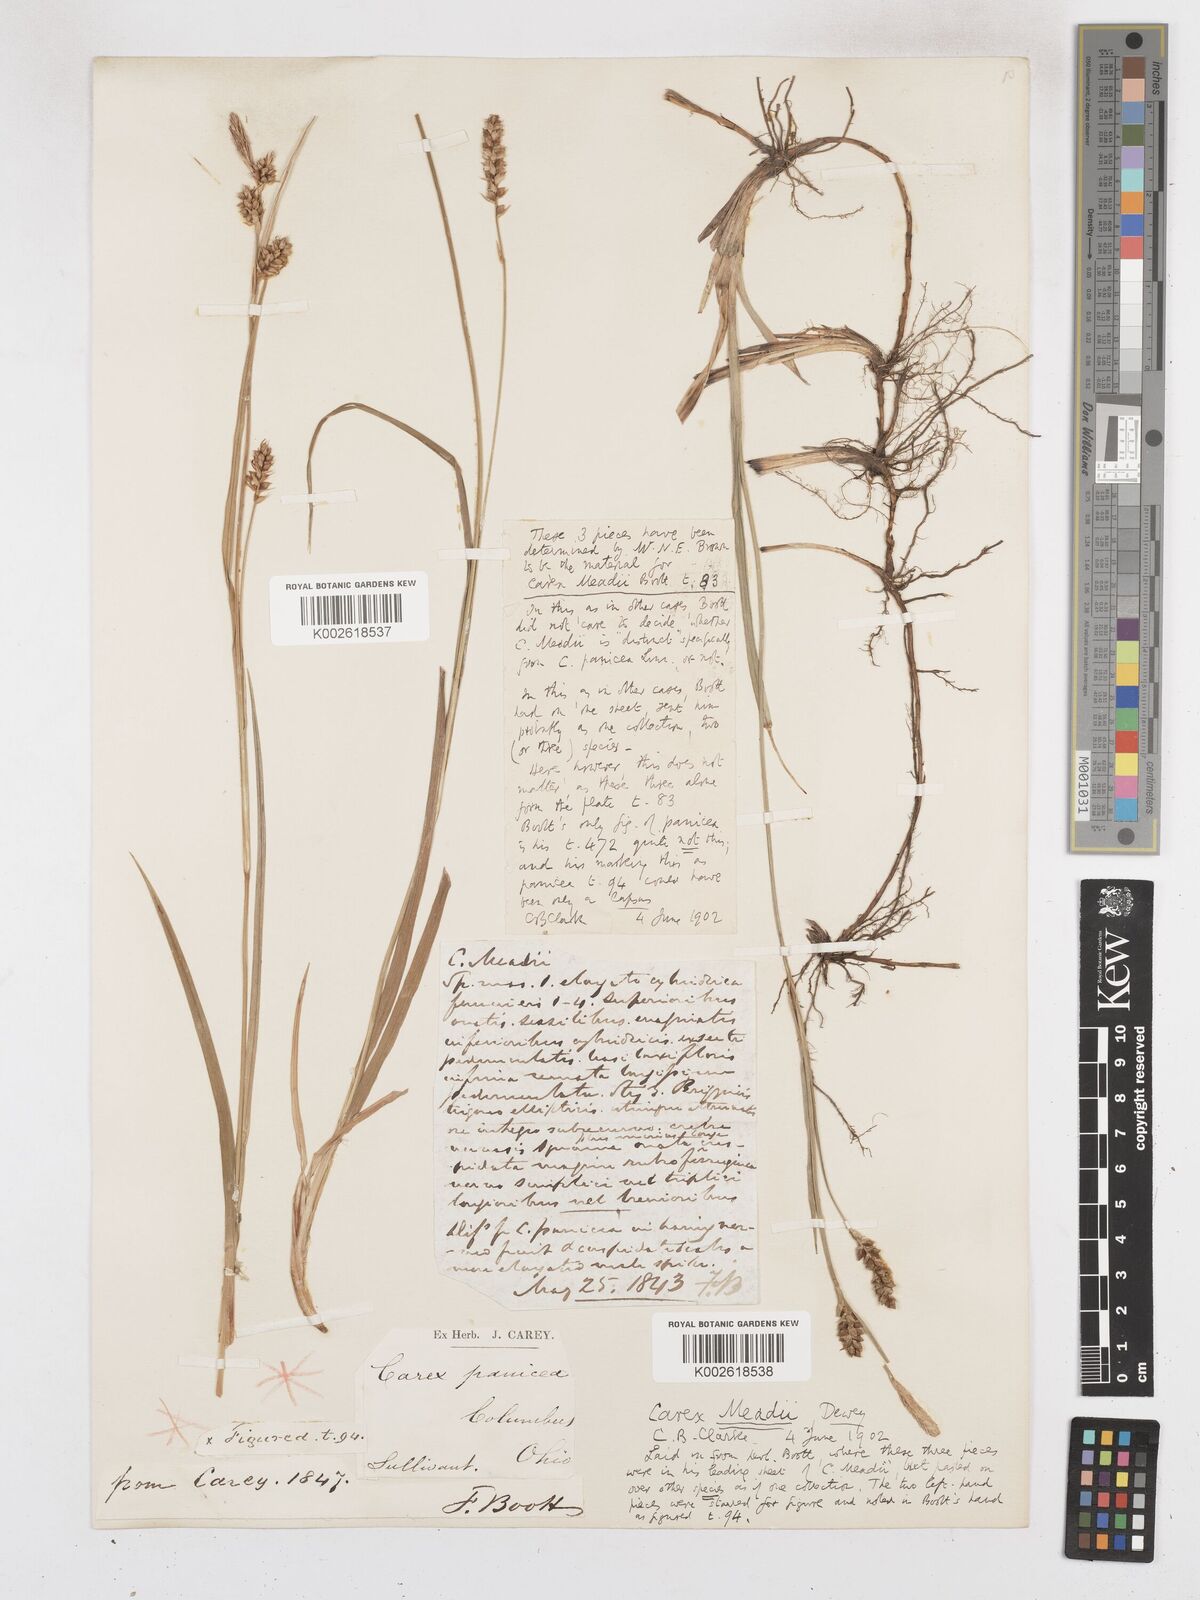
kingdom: Plantae
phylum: Tracheophyta
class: Liliopsida
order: Poales
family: Cyperaceae
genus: Carex
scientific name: Carex meadii
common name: Mead's sedge
